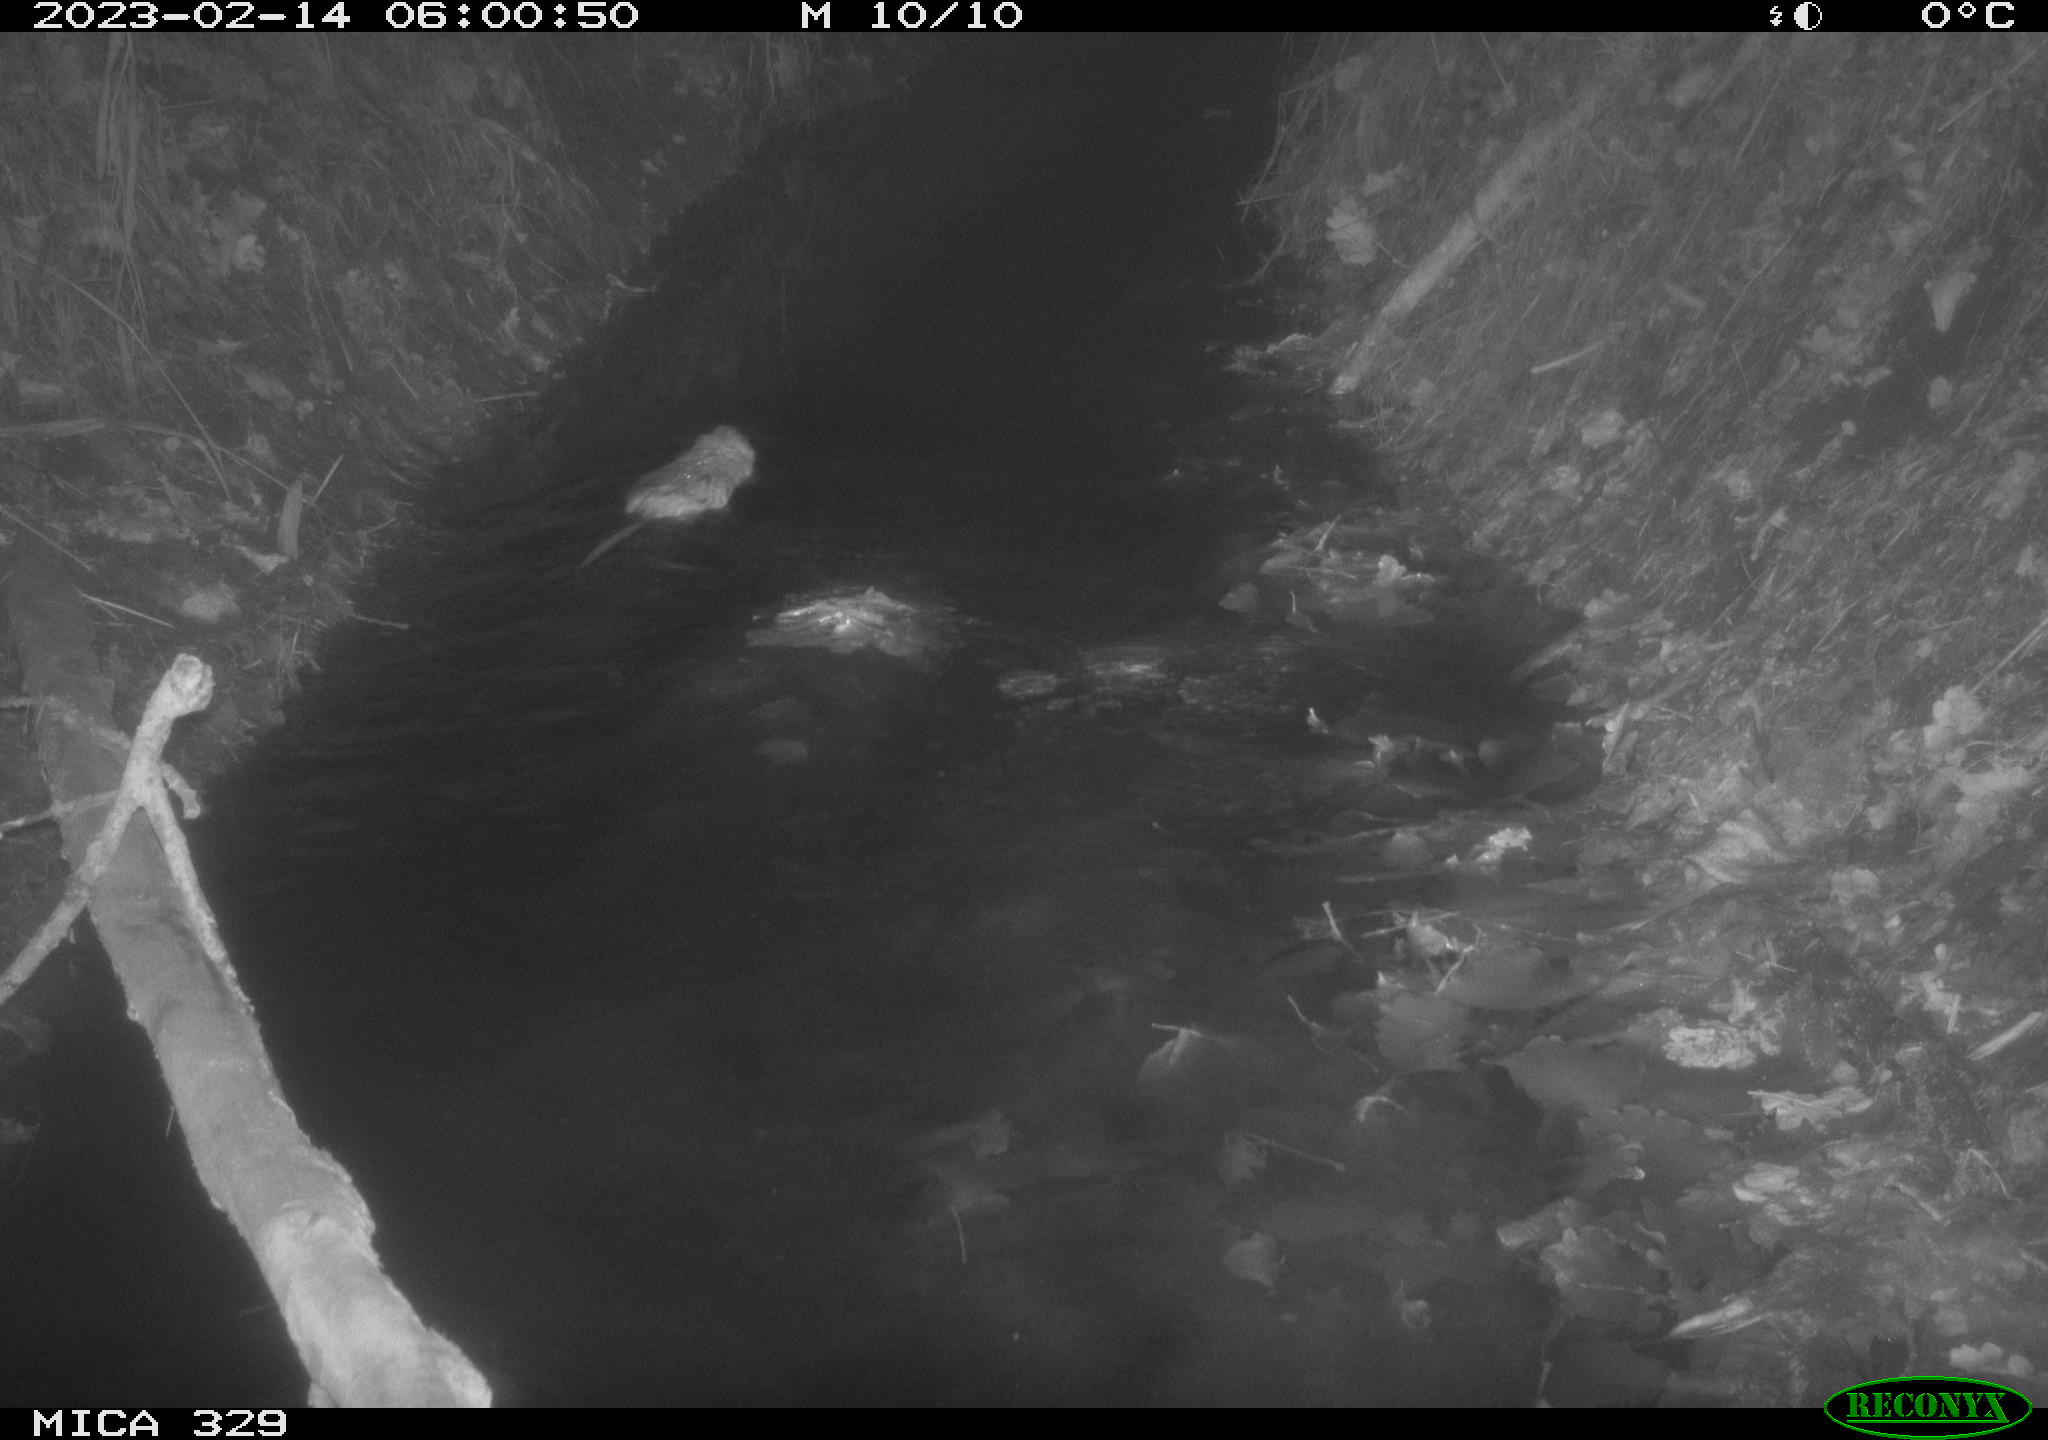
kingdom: Animalia
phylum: Chordata
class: Mammalia
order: Rodentia
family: Cricetidae
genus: Ondatra
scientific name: Ondatra zibethicus
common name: Muskrat
